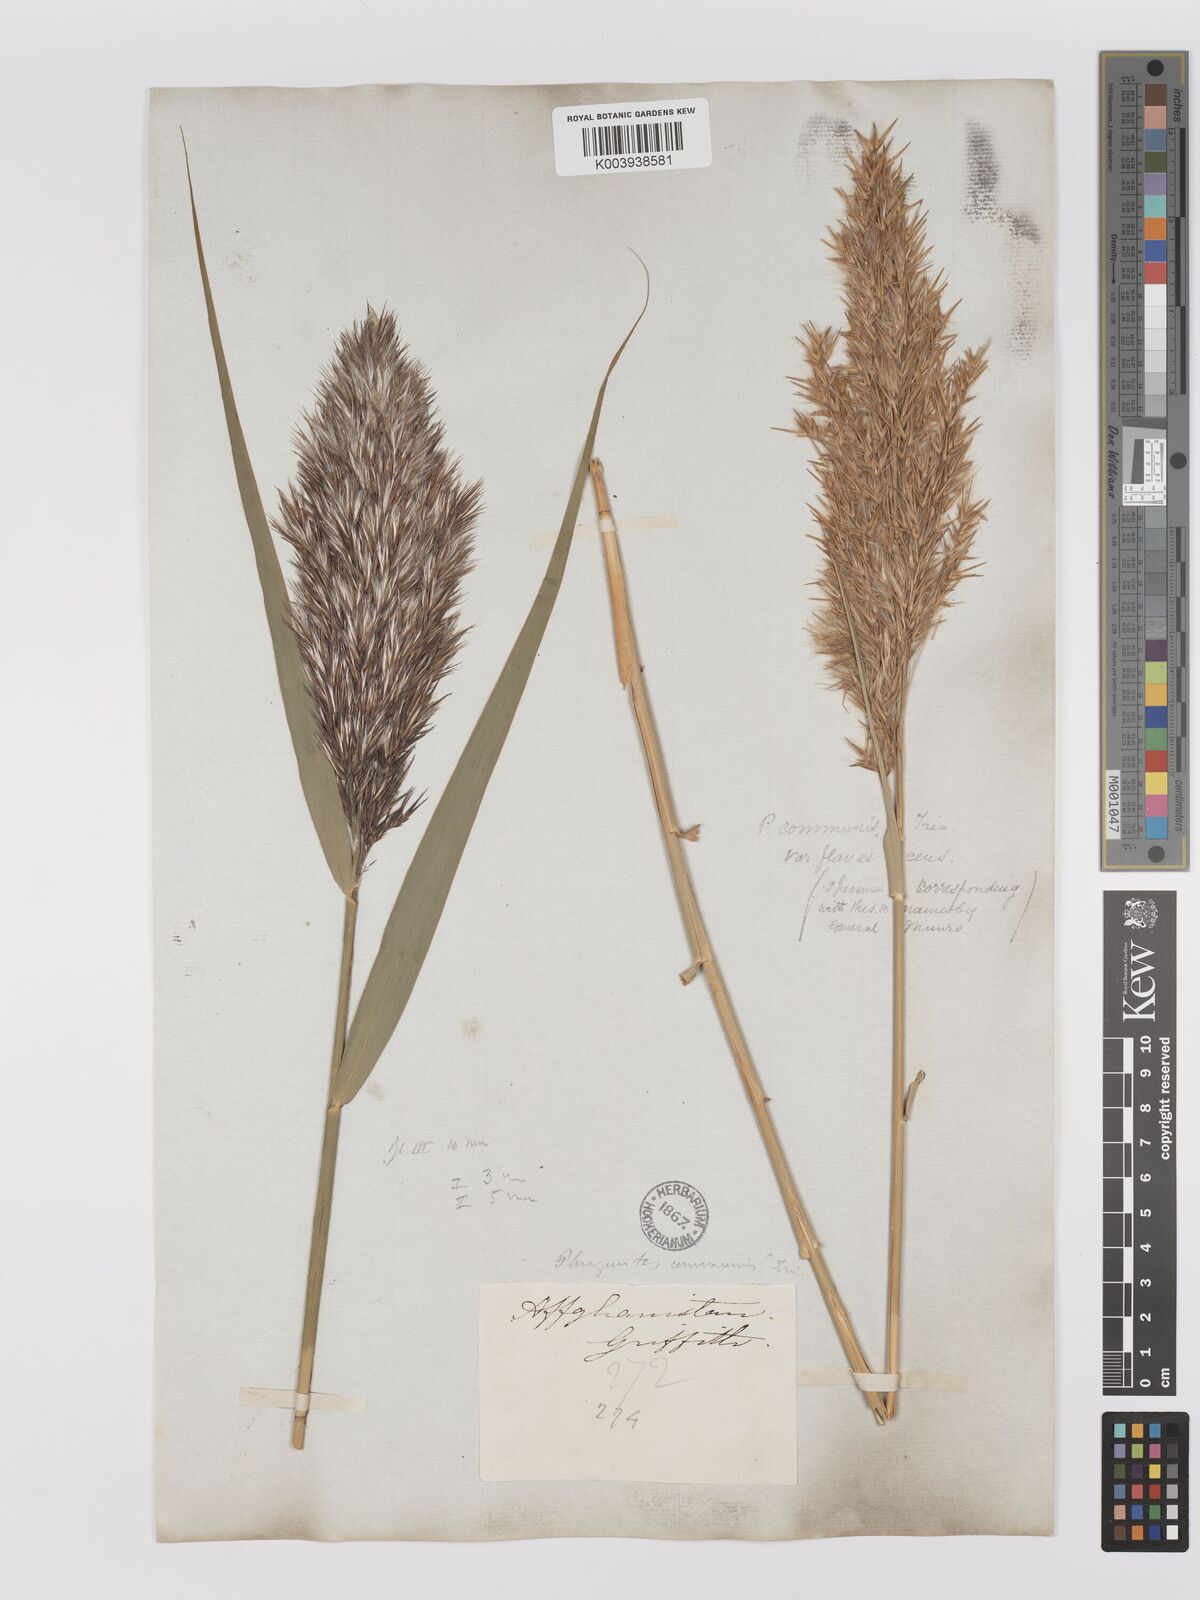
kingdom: Plantae
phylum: Tracheophyta
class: Liliopsida
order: Poales
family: Poaceae
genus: Phragmites
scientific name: Phragmites australis
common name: Common reed
